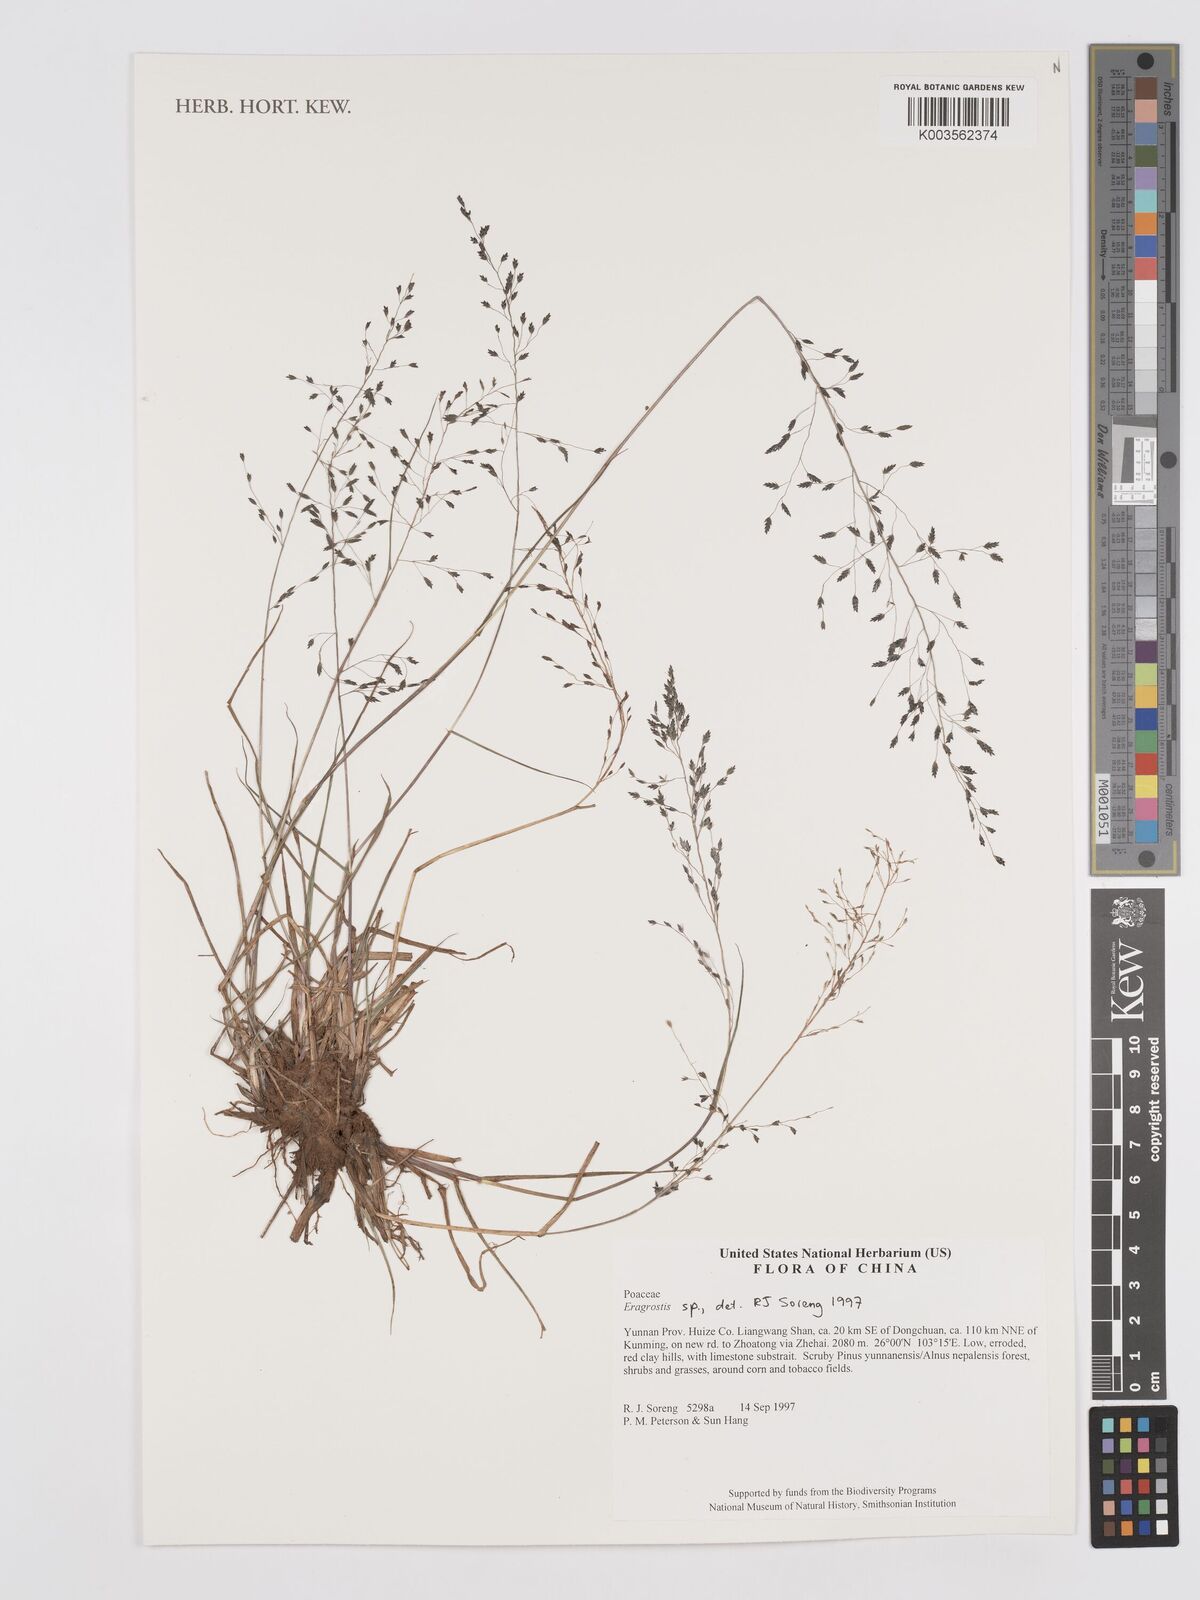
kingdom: Plantae
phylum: Tracheophyta
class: Liliopsida
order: Poales
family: Poaceae
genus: Eragrostis
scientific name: Eragrostis
